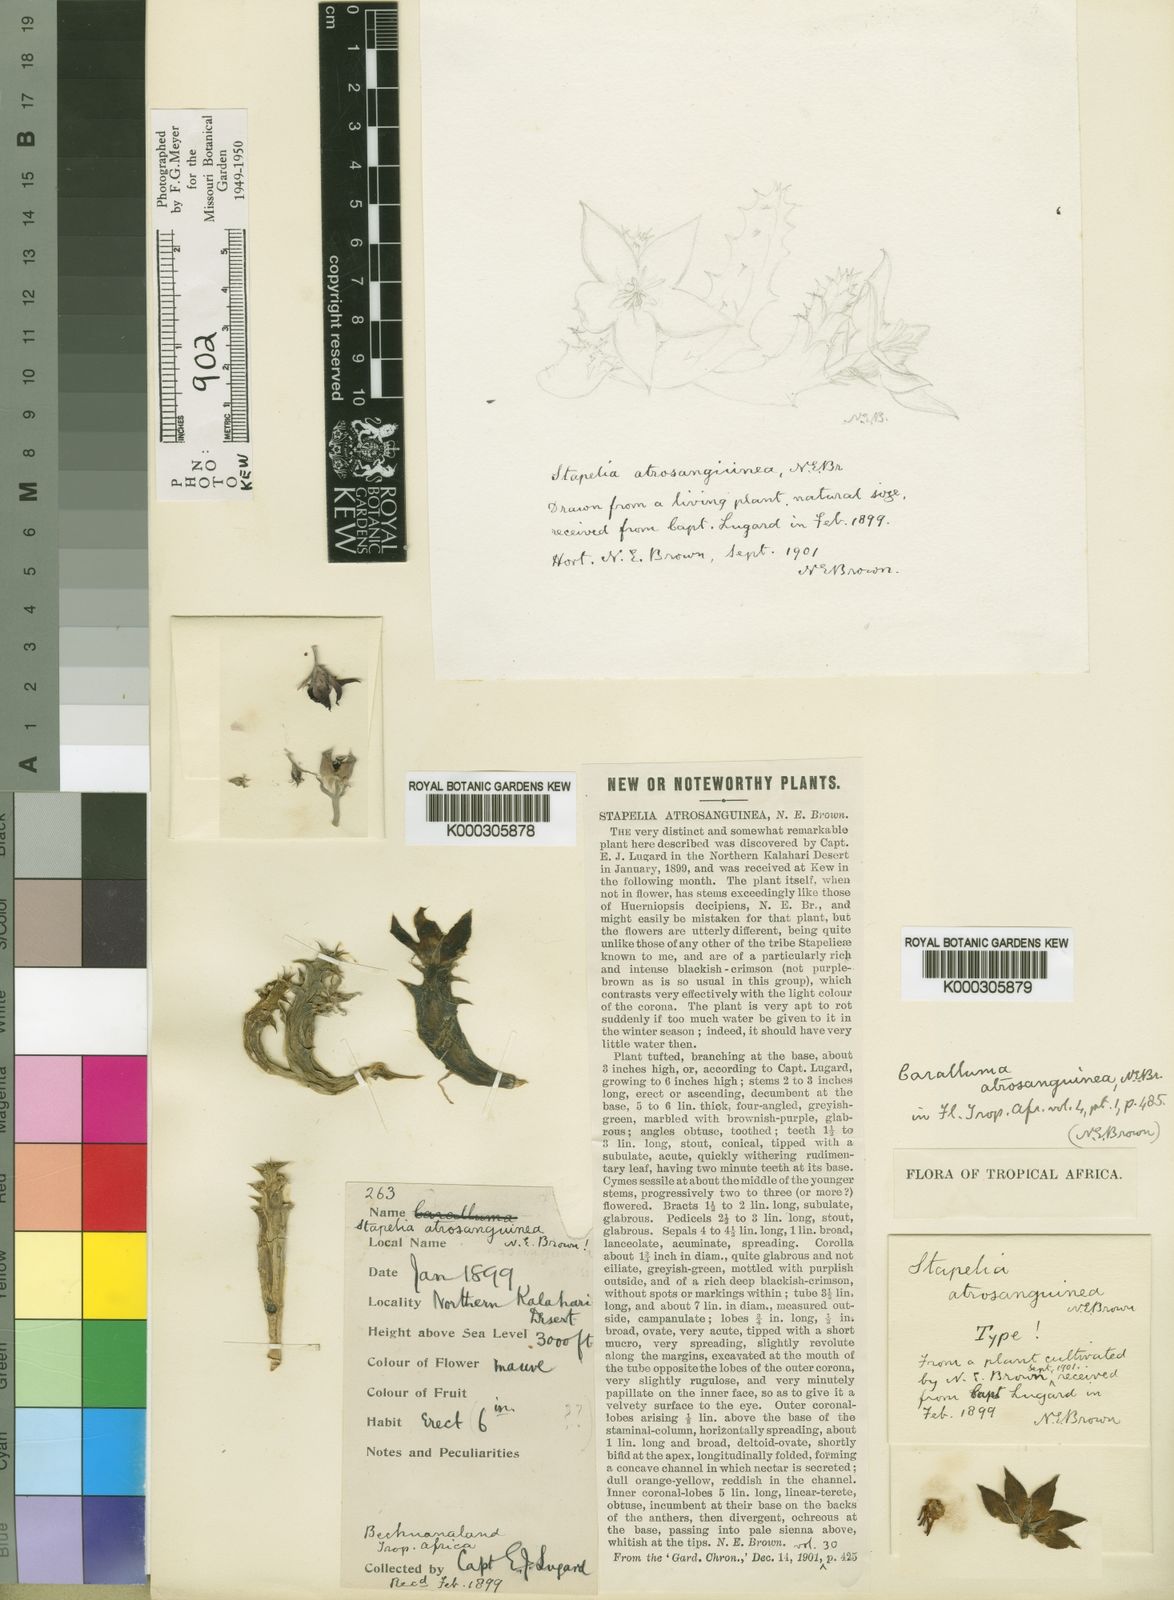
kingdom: Plantae
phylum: Tracheophyta
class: Magnoliopsida
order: Gentianales
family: Apocynaceae
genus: Ceropegia
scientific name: Ceropegia atrosanguinea
